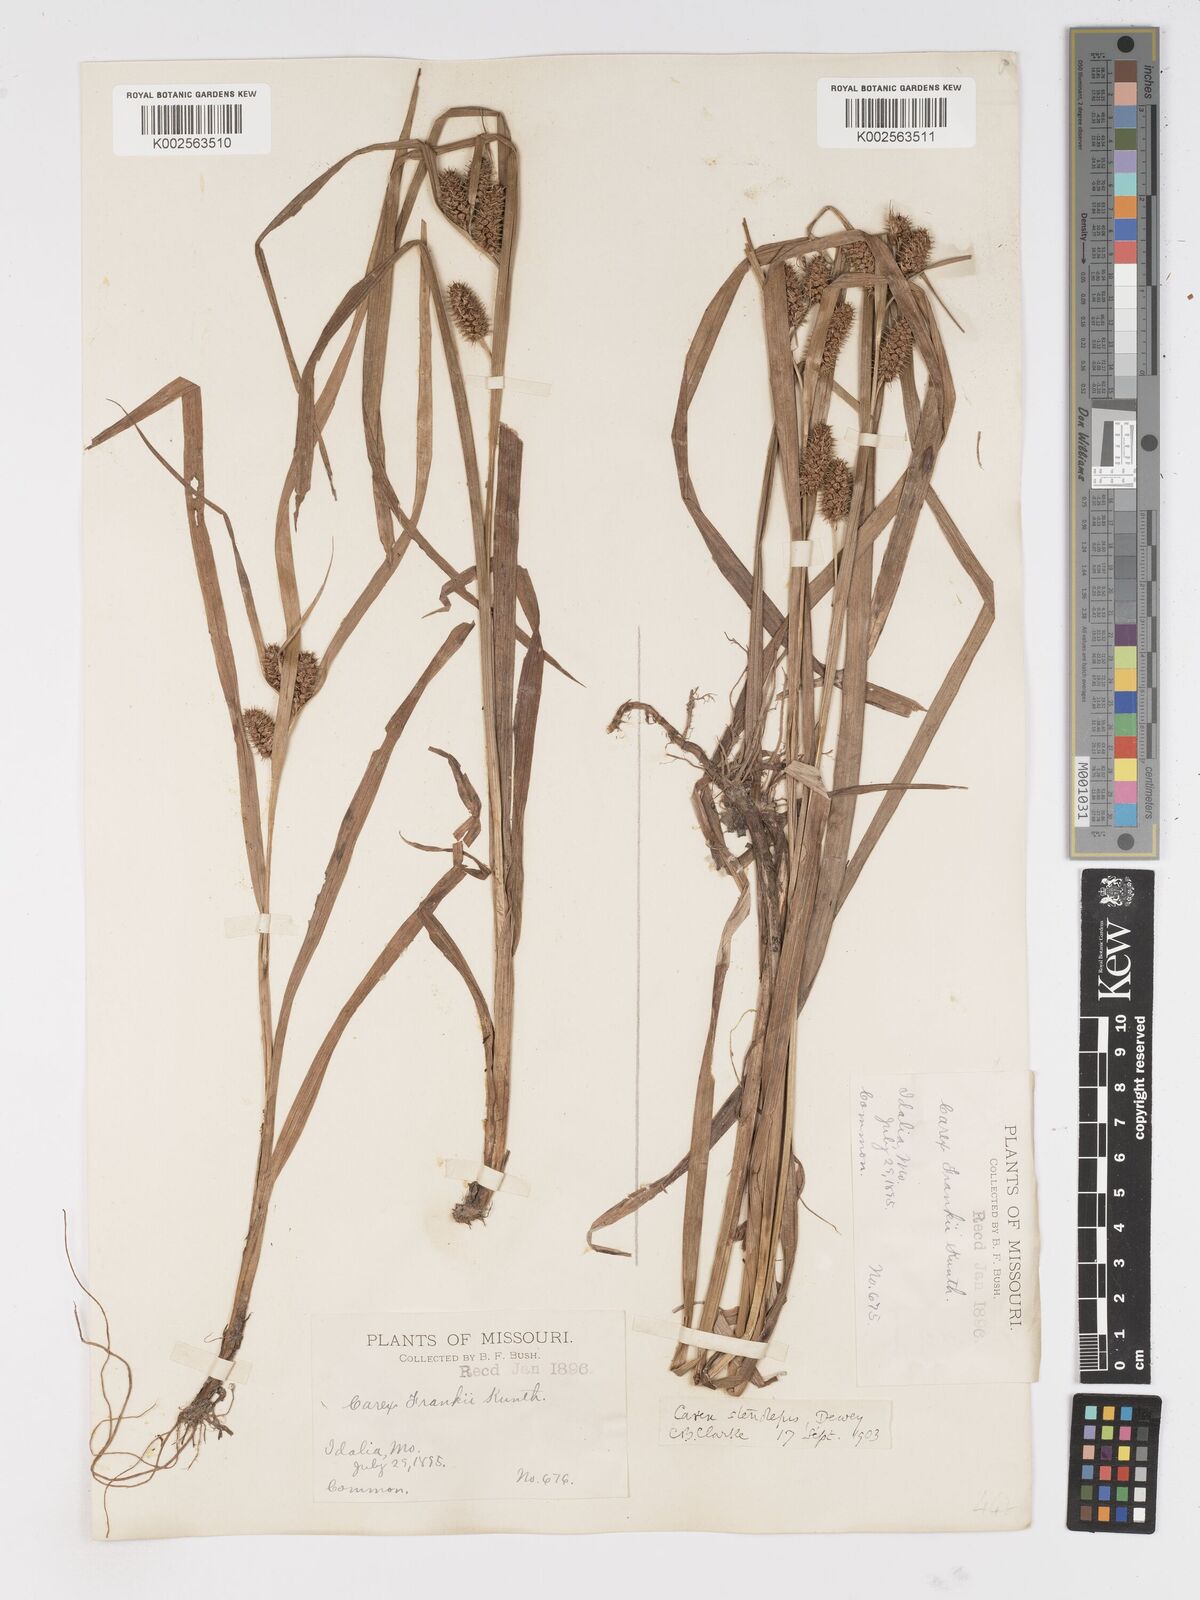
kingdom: Plantae
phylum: Tracheophyta
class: Liliopsida
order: Poales
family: Cyperaceae
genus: Carex
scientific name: Carex frankii
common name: Frank's sedge
